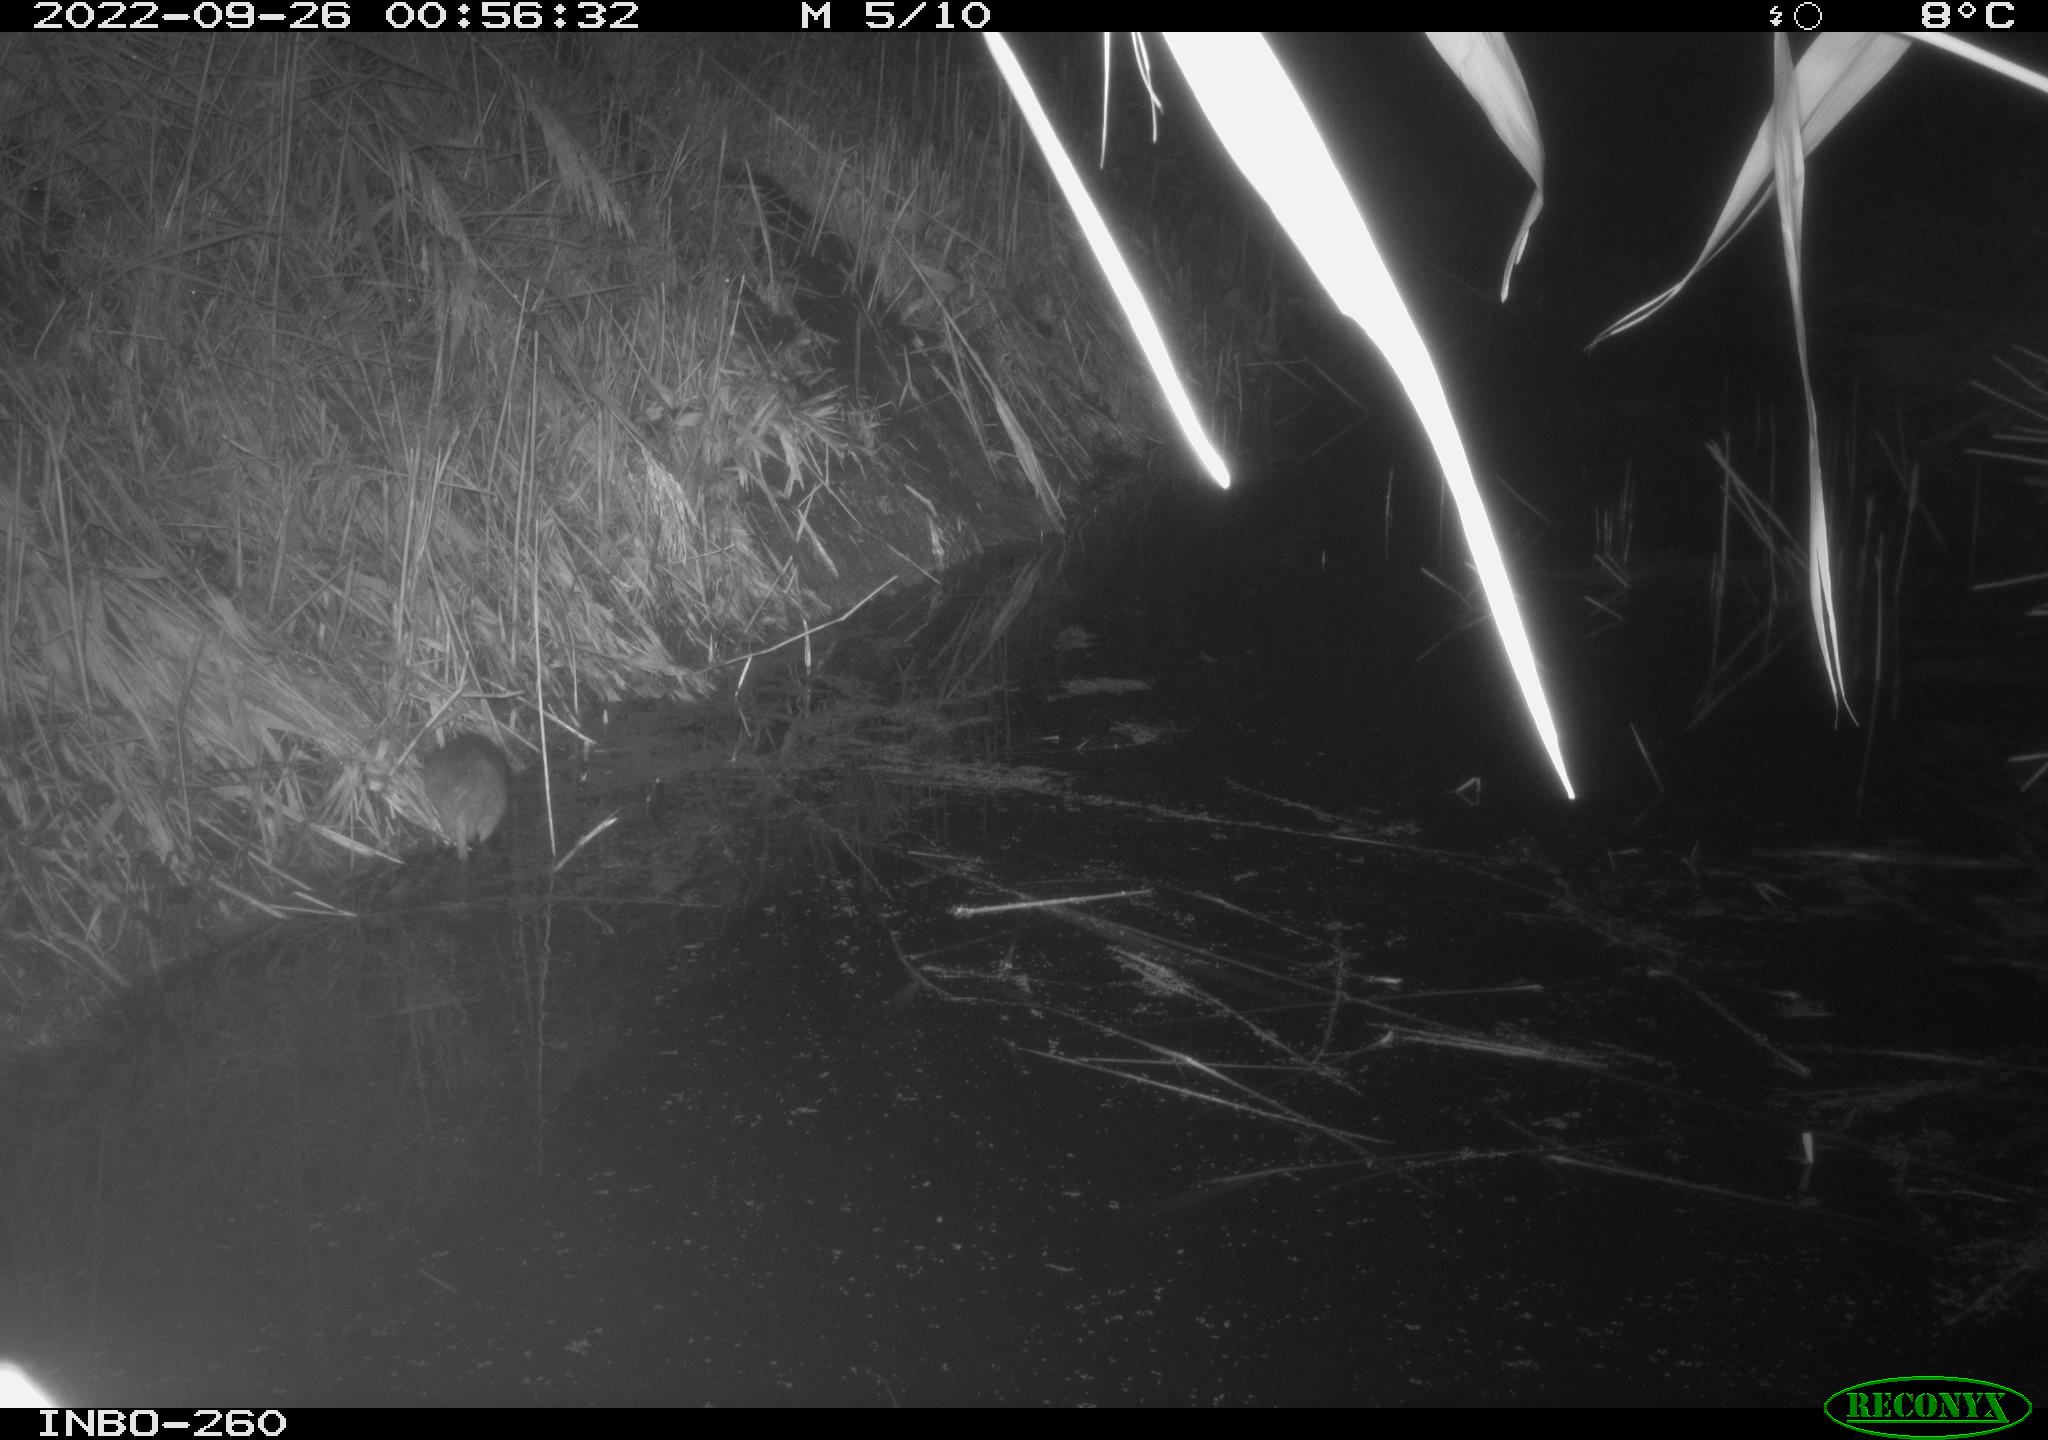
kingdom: Animalia
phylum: Chordata
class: Mammalia
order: Rodentia
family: Muridae
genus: Rattus
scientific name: Rattus norvegicus
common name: Brown rat
